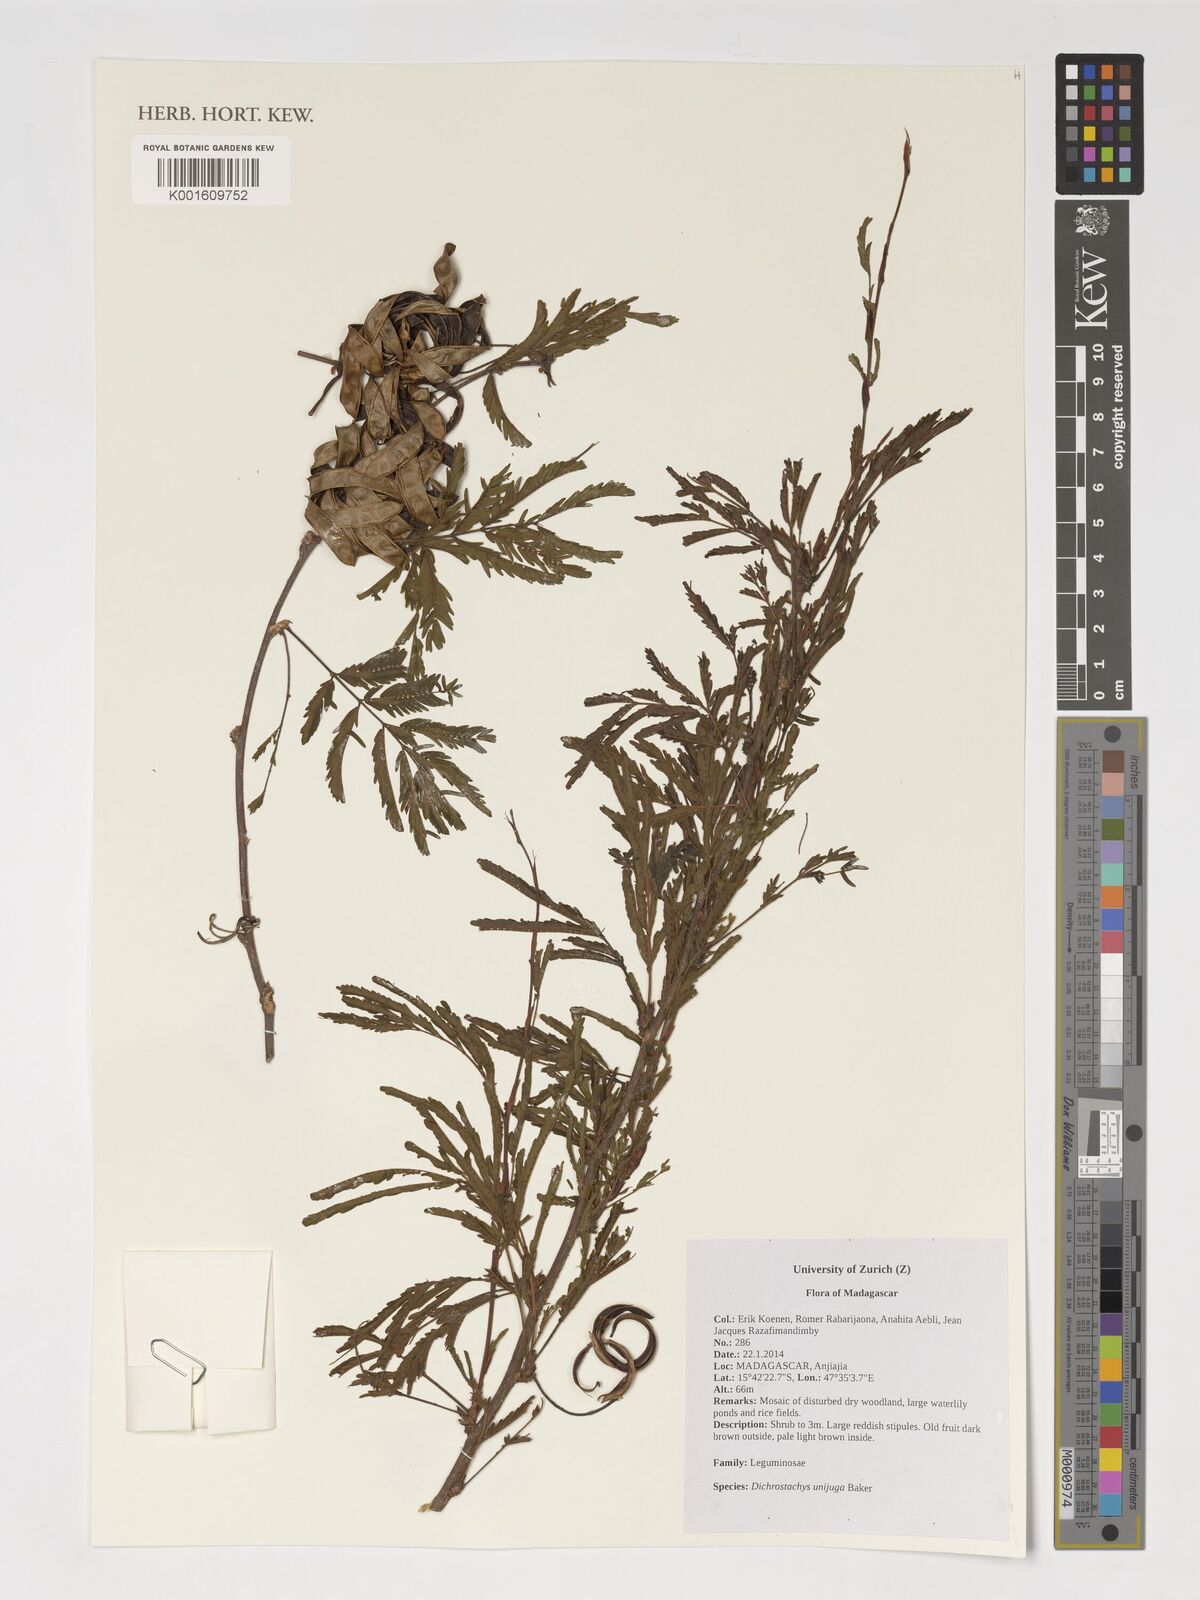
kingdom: Plantae
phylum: Tracheophyta
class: Magnoliopsida
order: Fabales
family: Fabaceae
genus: Dichrostachys
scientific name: Dichrostachys unijuga
